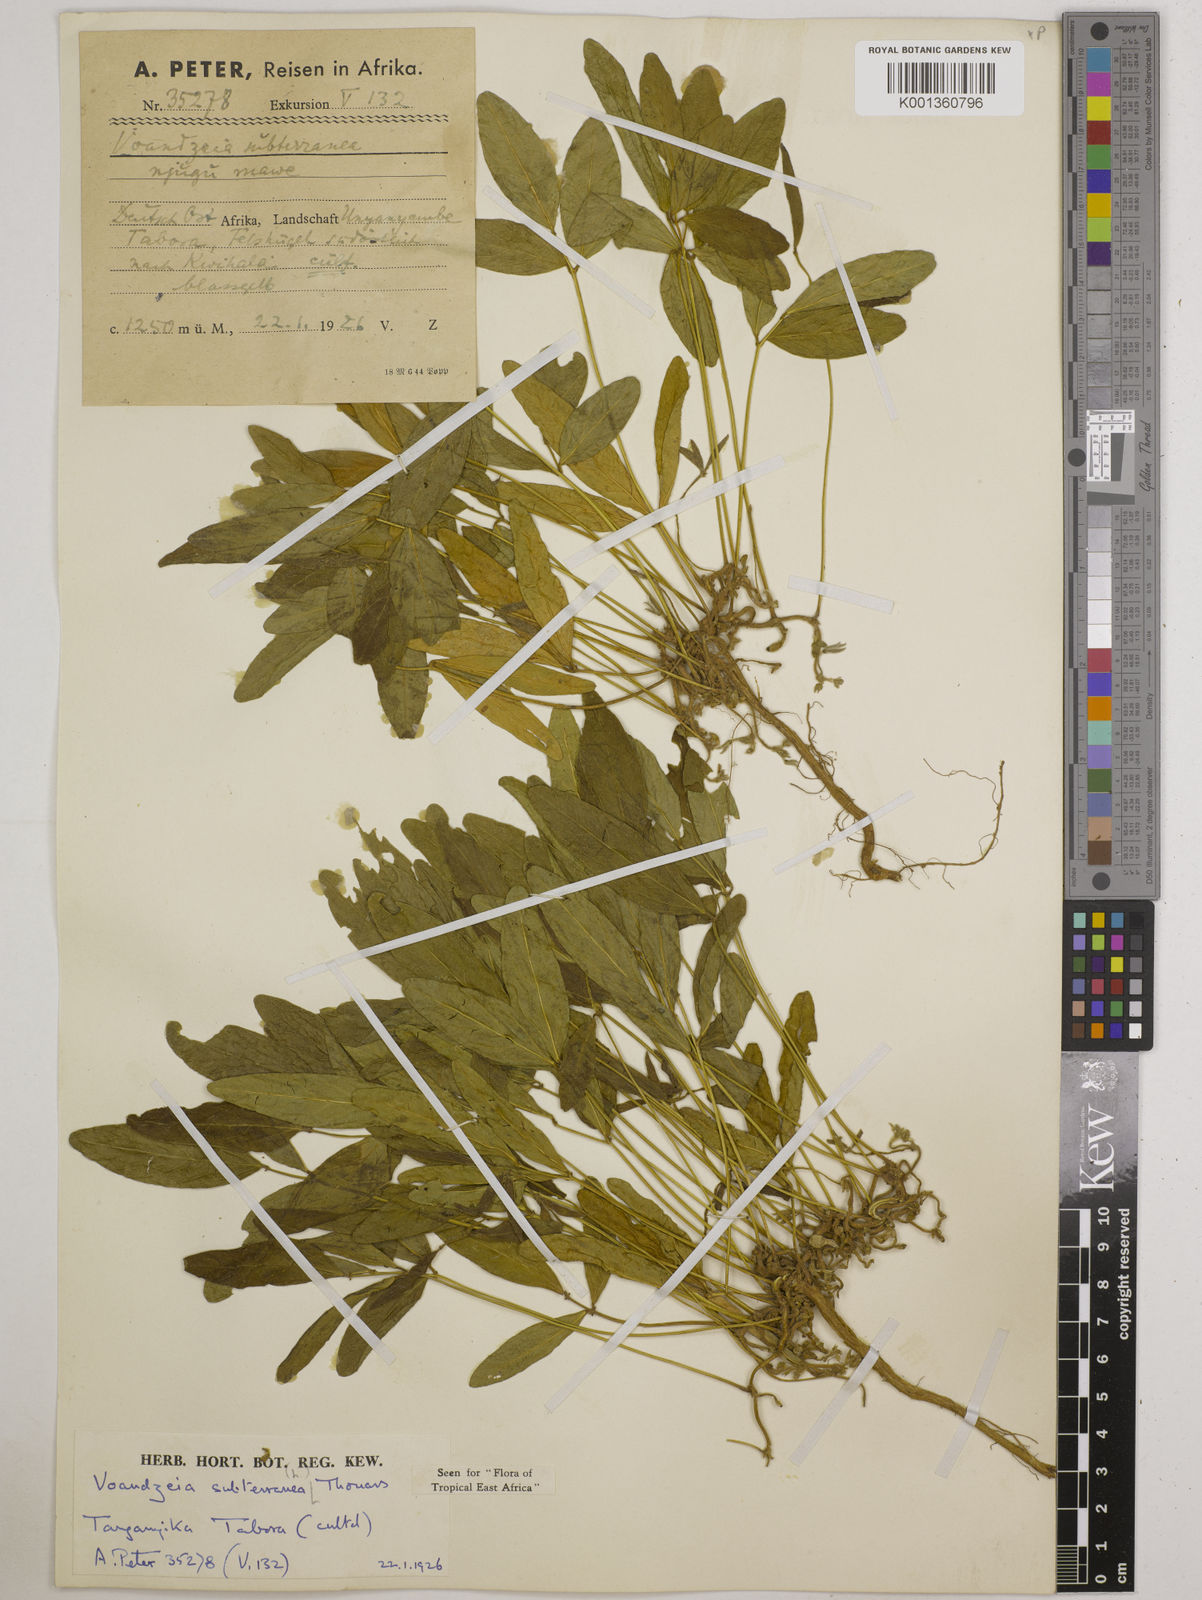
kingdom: Plantae
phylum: Tracheophyta
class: Magnoliopsida
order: Fabales
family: Fabaceae
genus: Vigna
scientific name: Vigna subterranea
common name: Bambara groundnut
